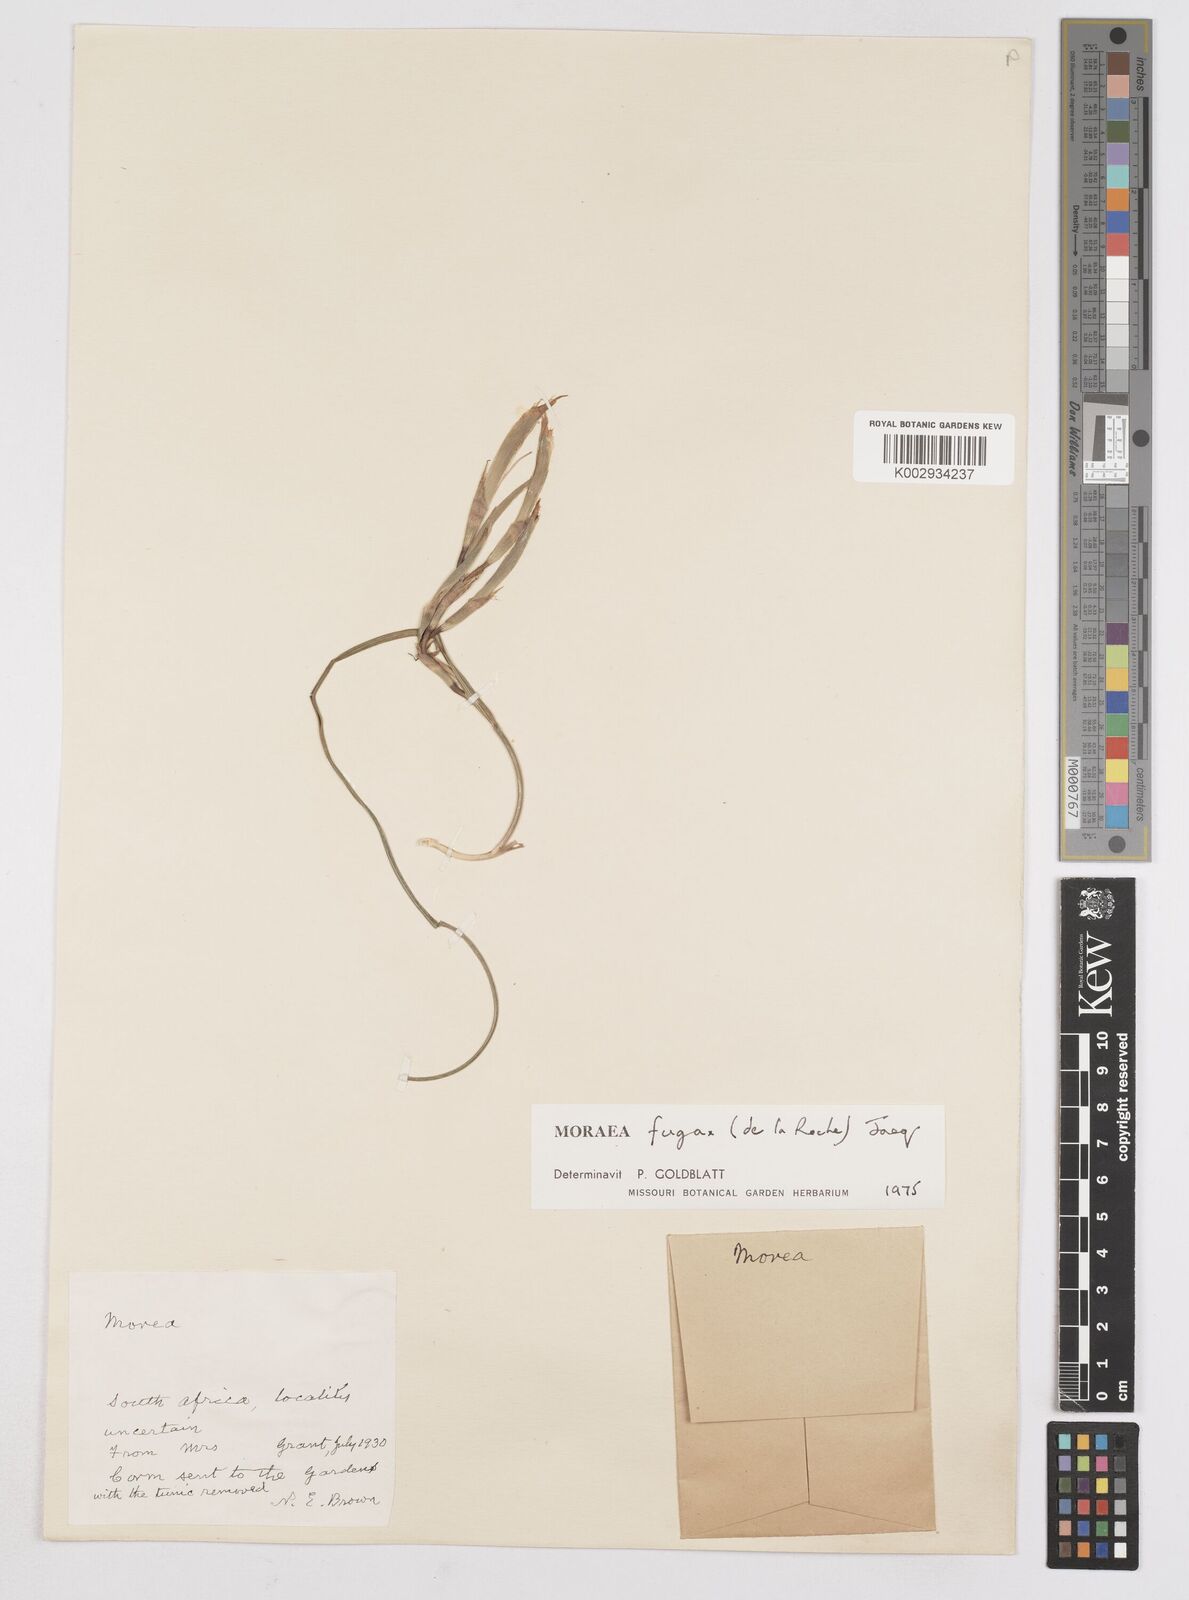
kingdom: Plantae
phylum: Tracheophyta
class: Liliopsida
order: Asparagales
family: Iridaceae
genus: Moraea
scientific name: Moraea fugax
